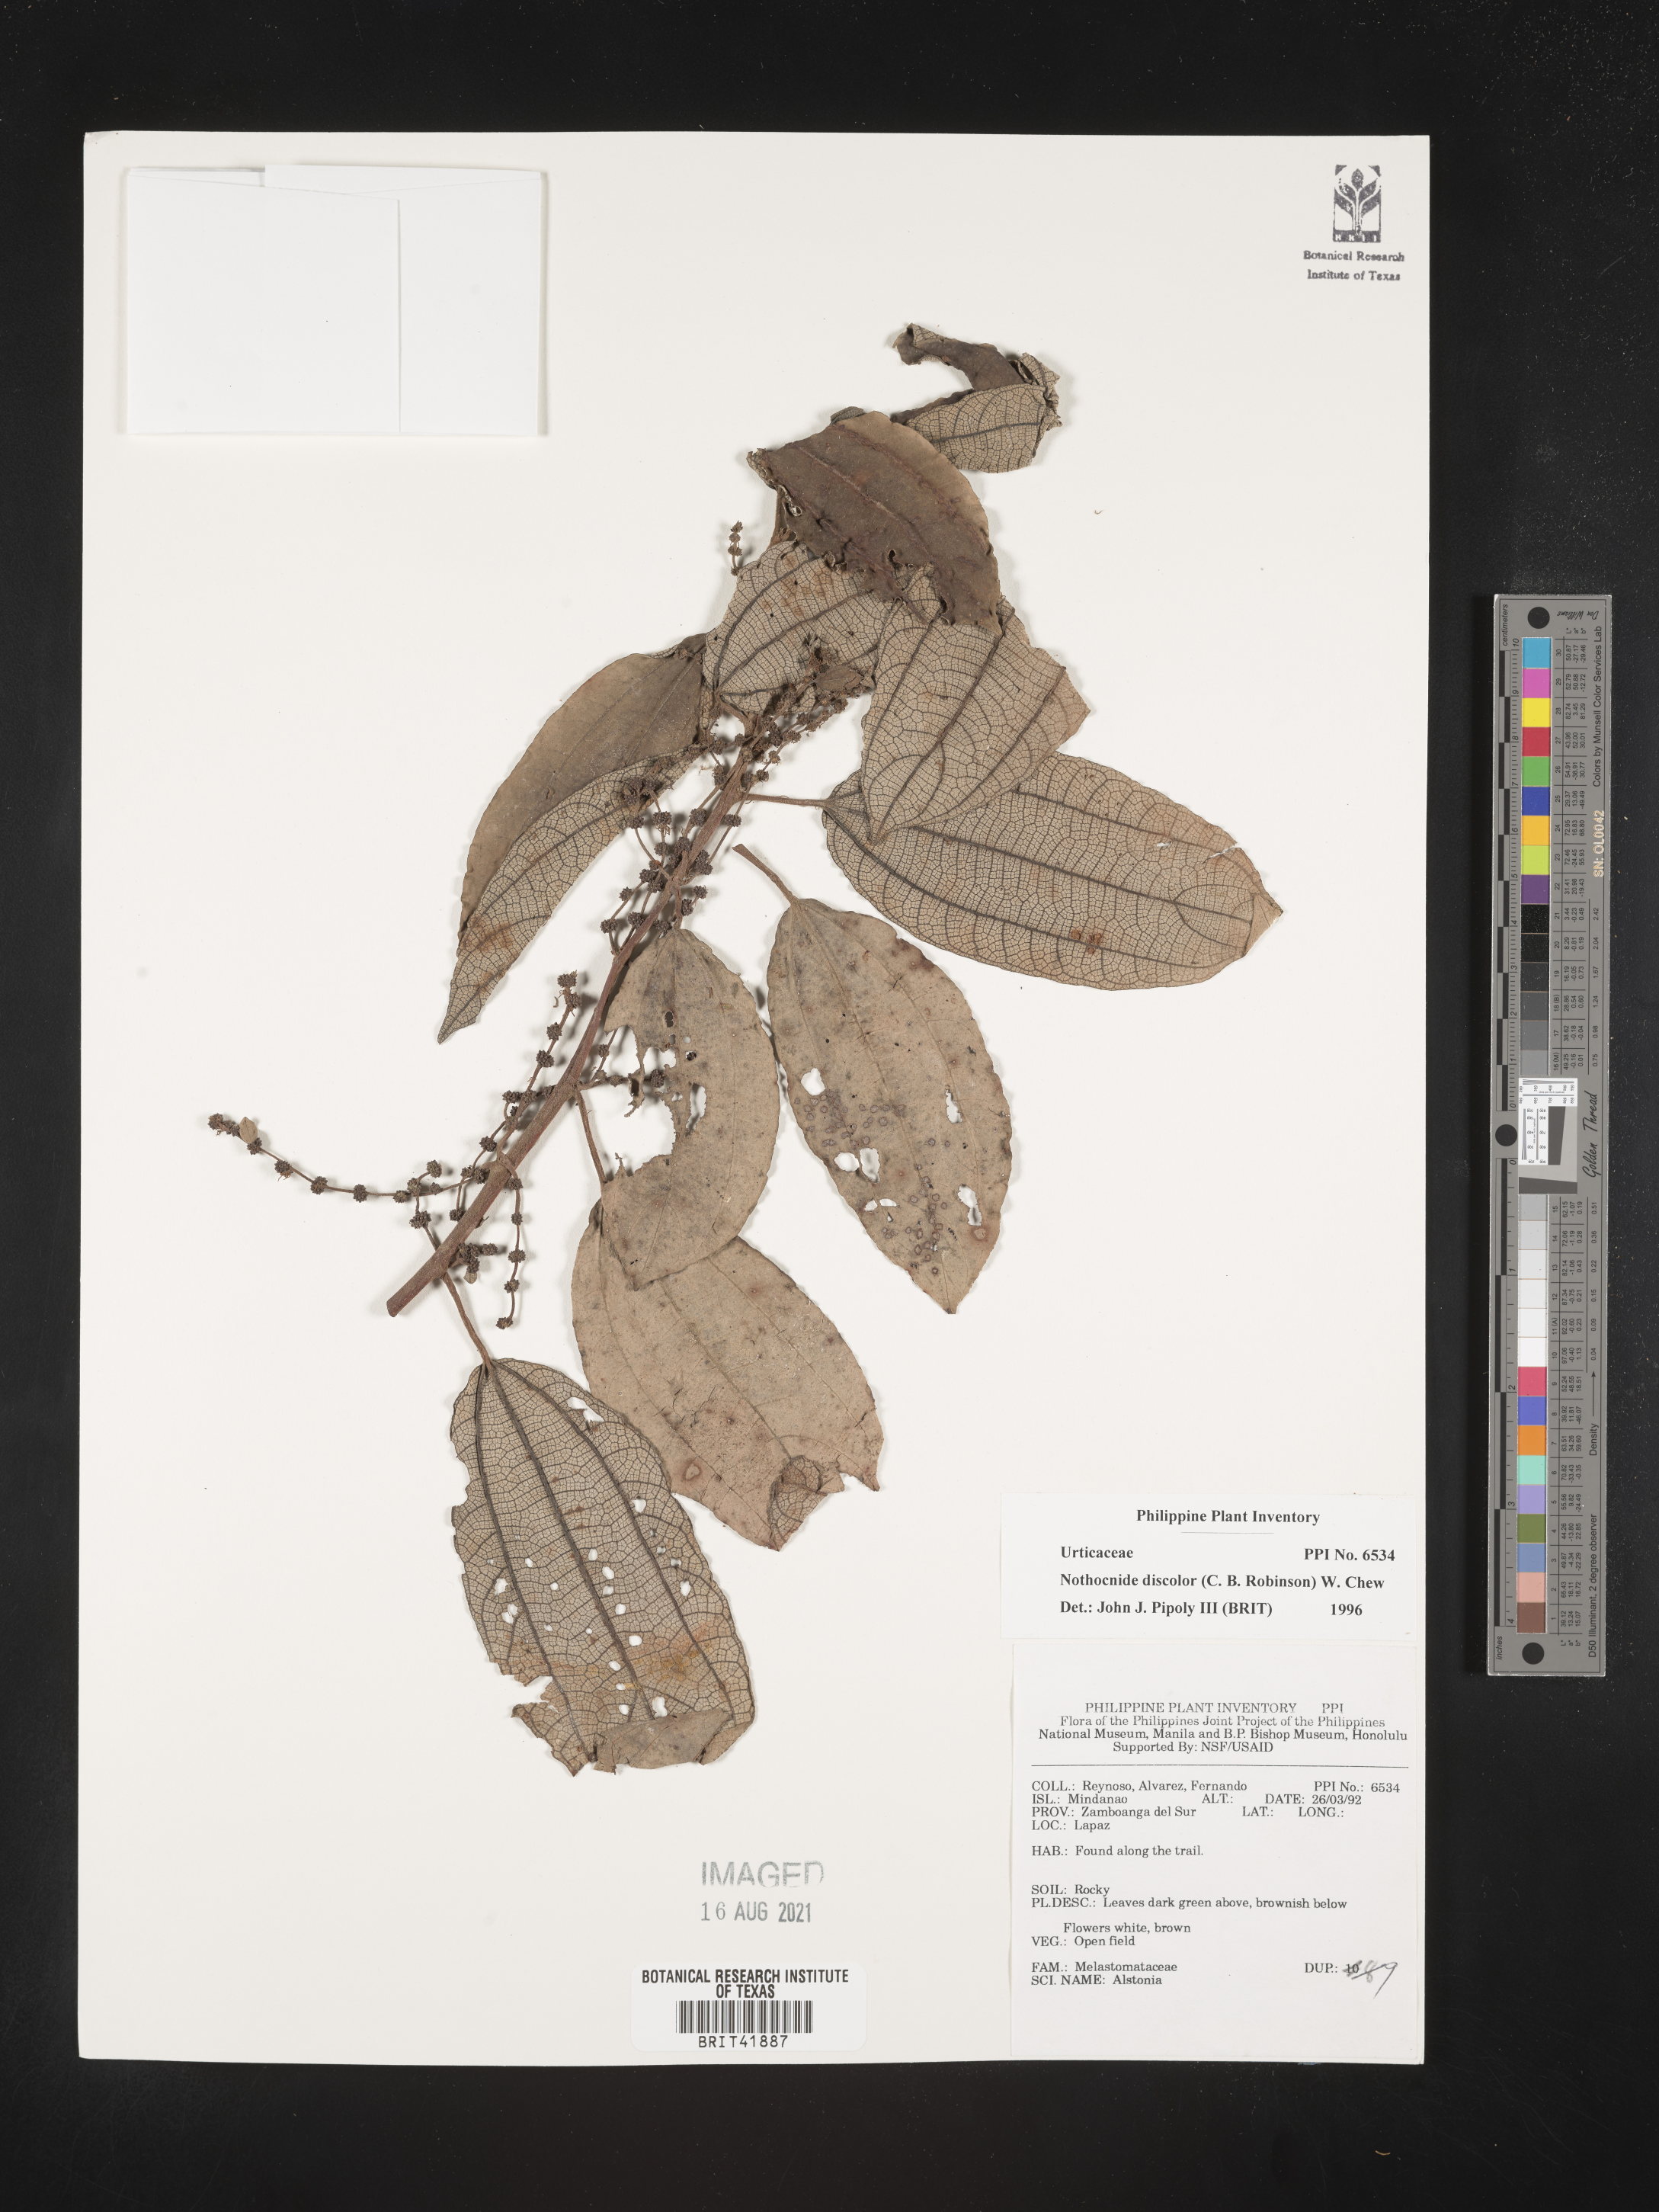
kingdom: Plantae
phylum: Tracheophyta
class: Magnoliopsida
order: Myrtales
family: Melastomataceae
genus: Astronia
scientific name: Astronia
